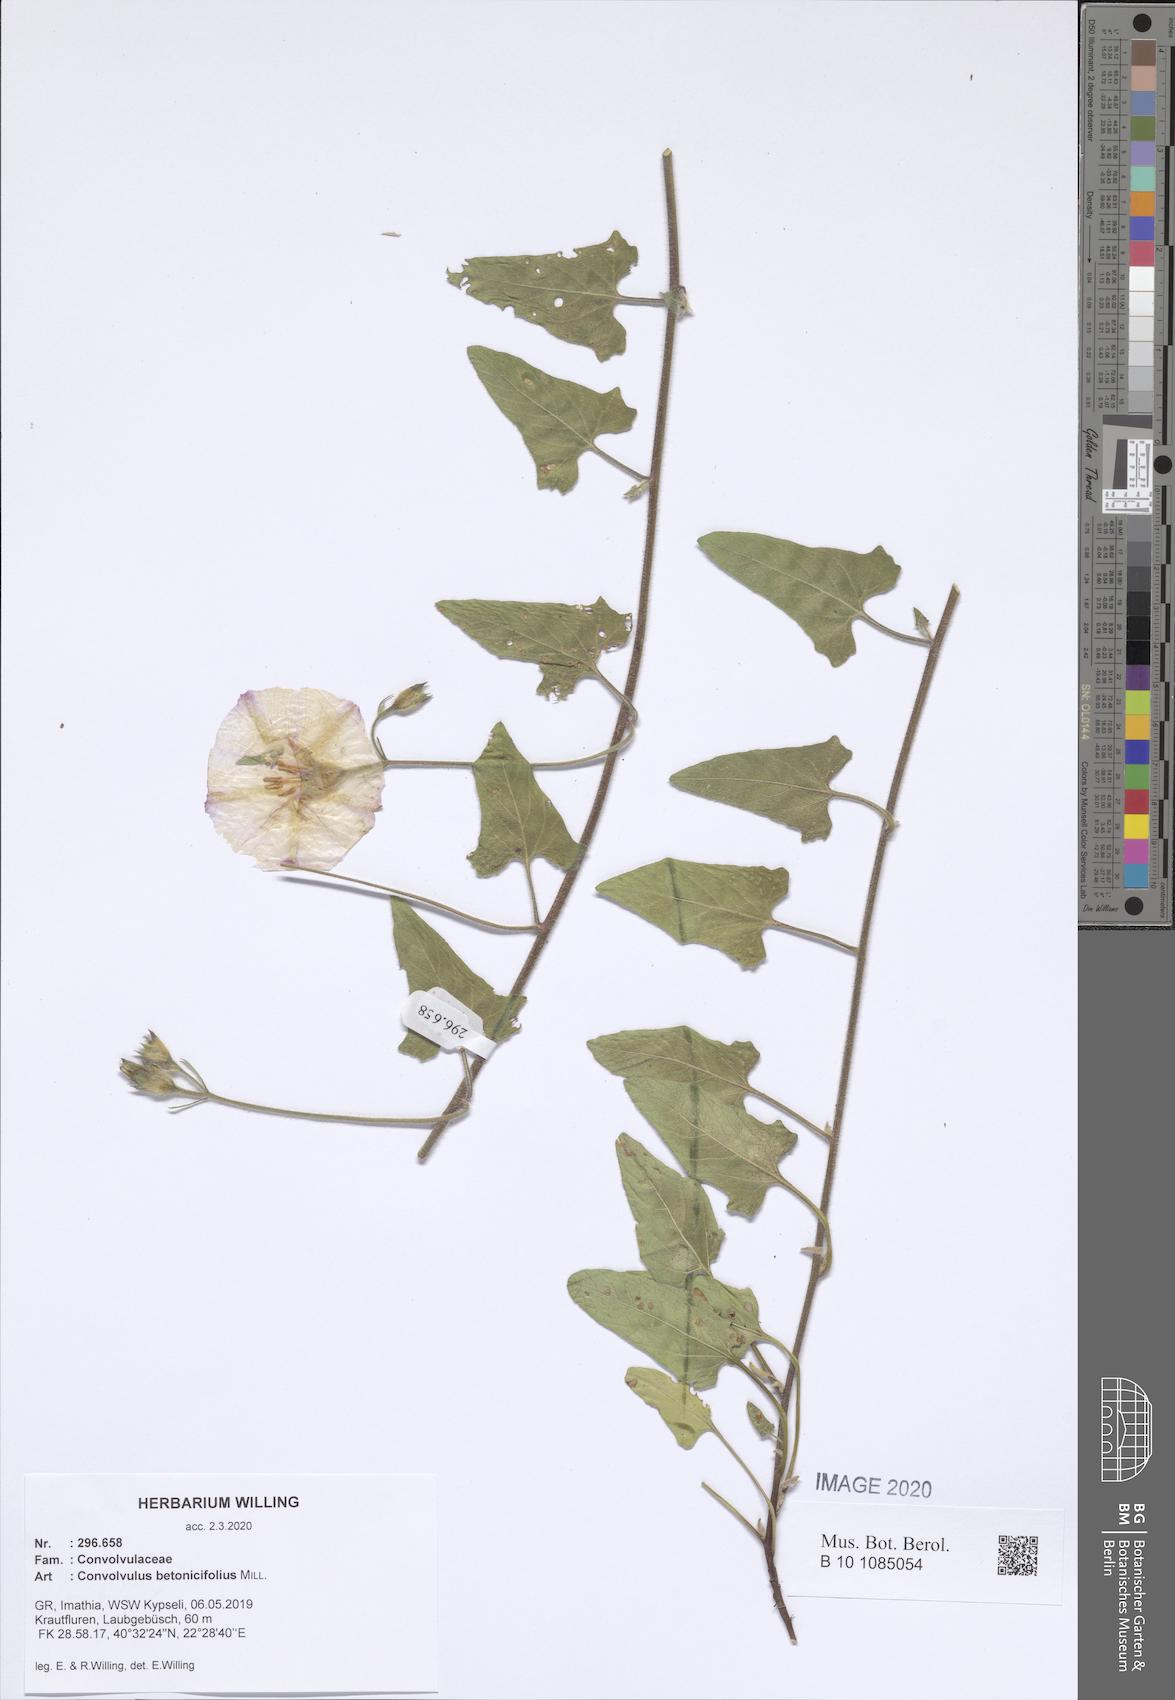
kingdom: Plantae
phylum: Tracheophyta
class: Magnoliopsida
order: Solanales
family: Convolvulaceae
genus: Convolvulus
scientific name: Convolvulus betonicifolius
